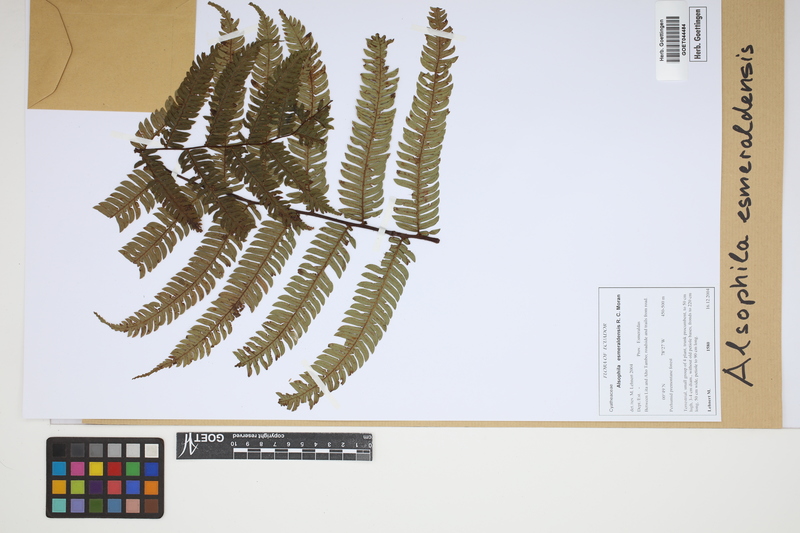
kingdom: Plantae
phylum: Tracheophyta
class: Polypodiopsida
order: Cyatheales
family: Cyatheaceae
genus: Alsophila
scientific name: Alsophila esmeraldensis
